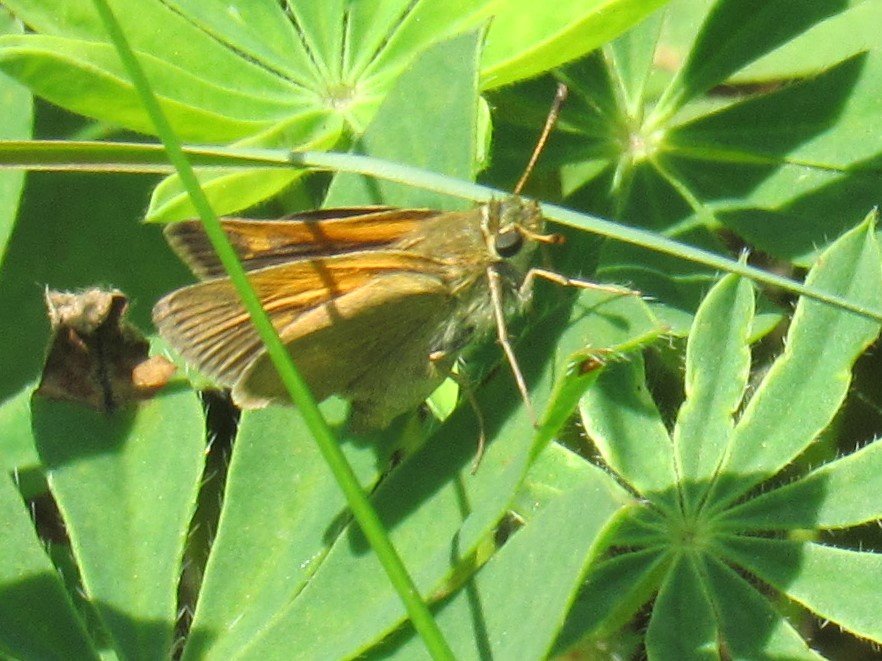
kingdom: Animalia
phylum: Arthropoda
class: Insecta
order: Lepidoptera
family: Hesperiidae
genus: Polites
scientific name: Polites themistocles
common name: Tawny-edged Skipper
